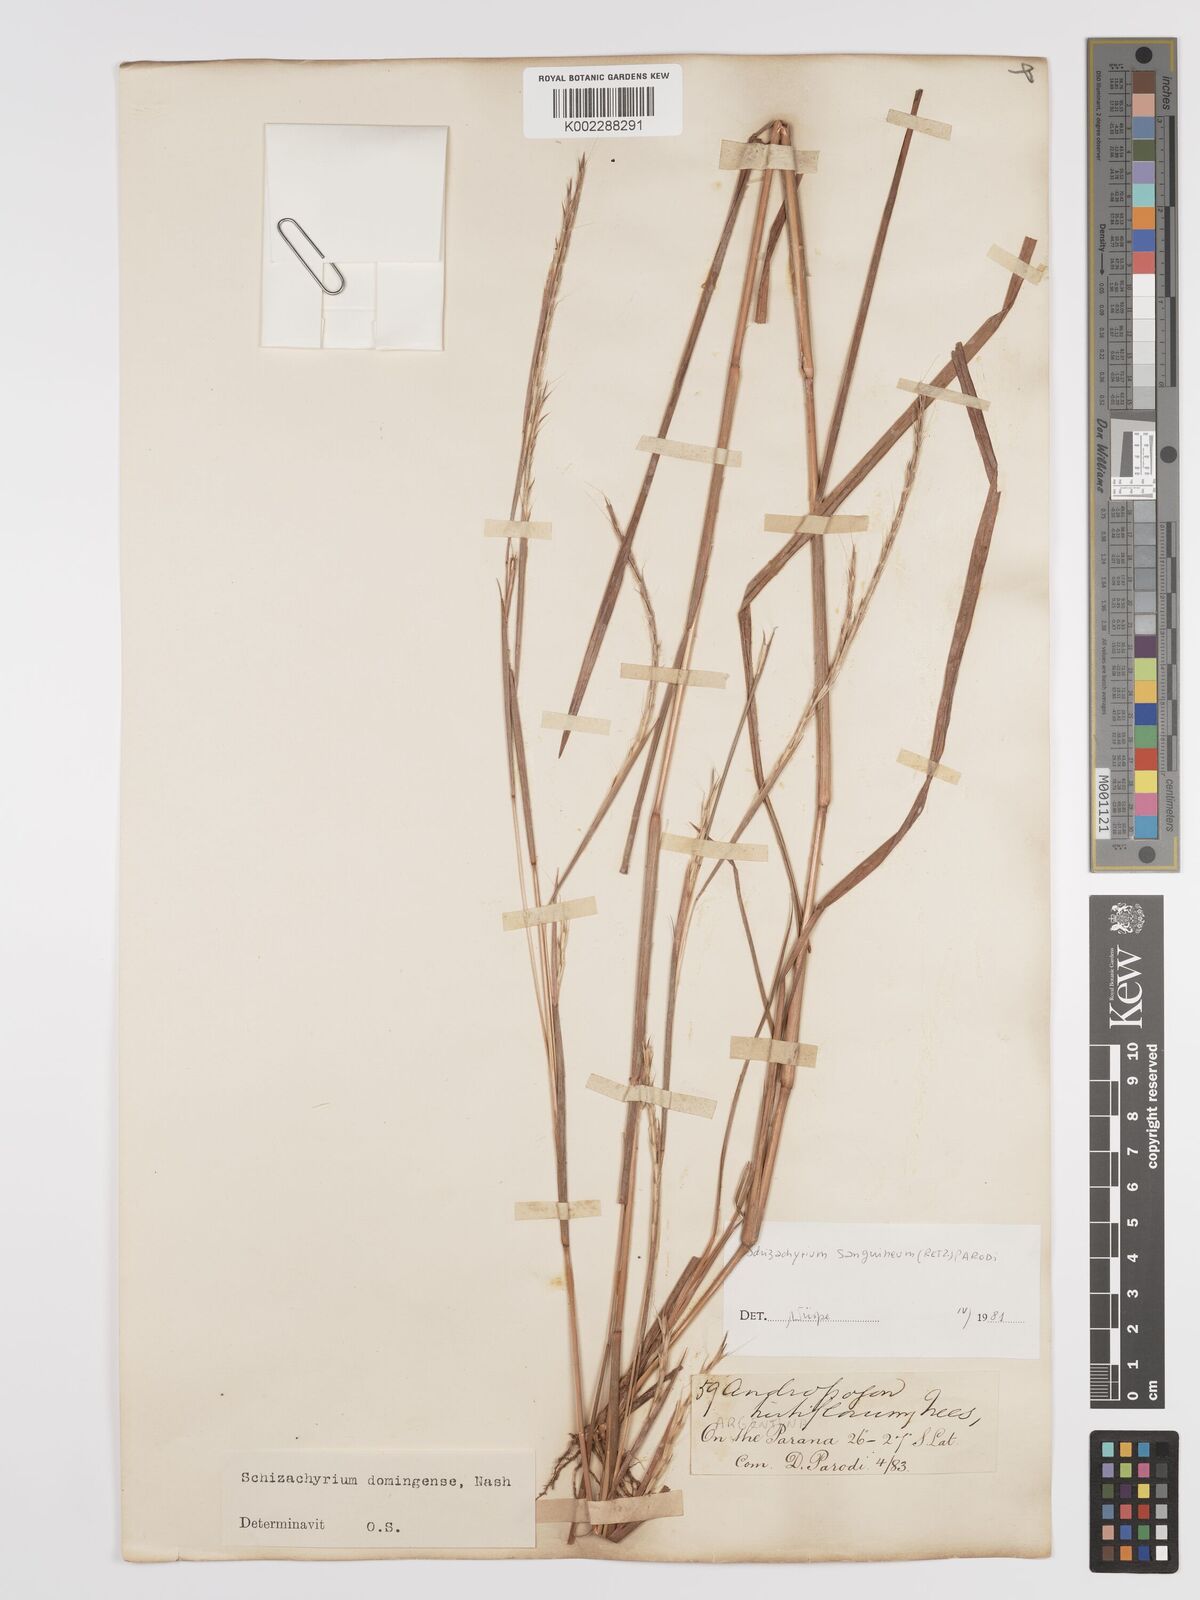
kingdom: Plantae
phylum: Tracheophyta
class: Liliopsida
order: Poales
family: Poaceae
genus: Schizachyrium
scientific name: Schizachyrium sanguineum
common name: Crimson bluestem
